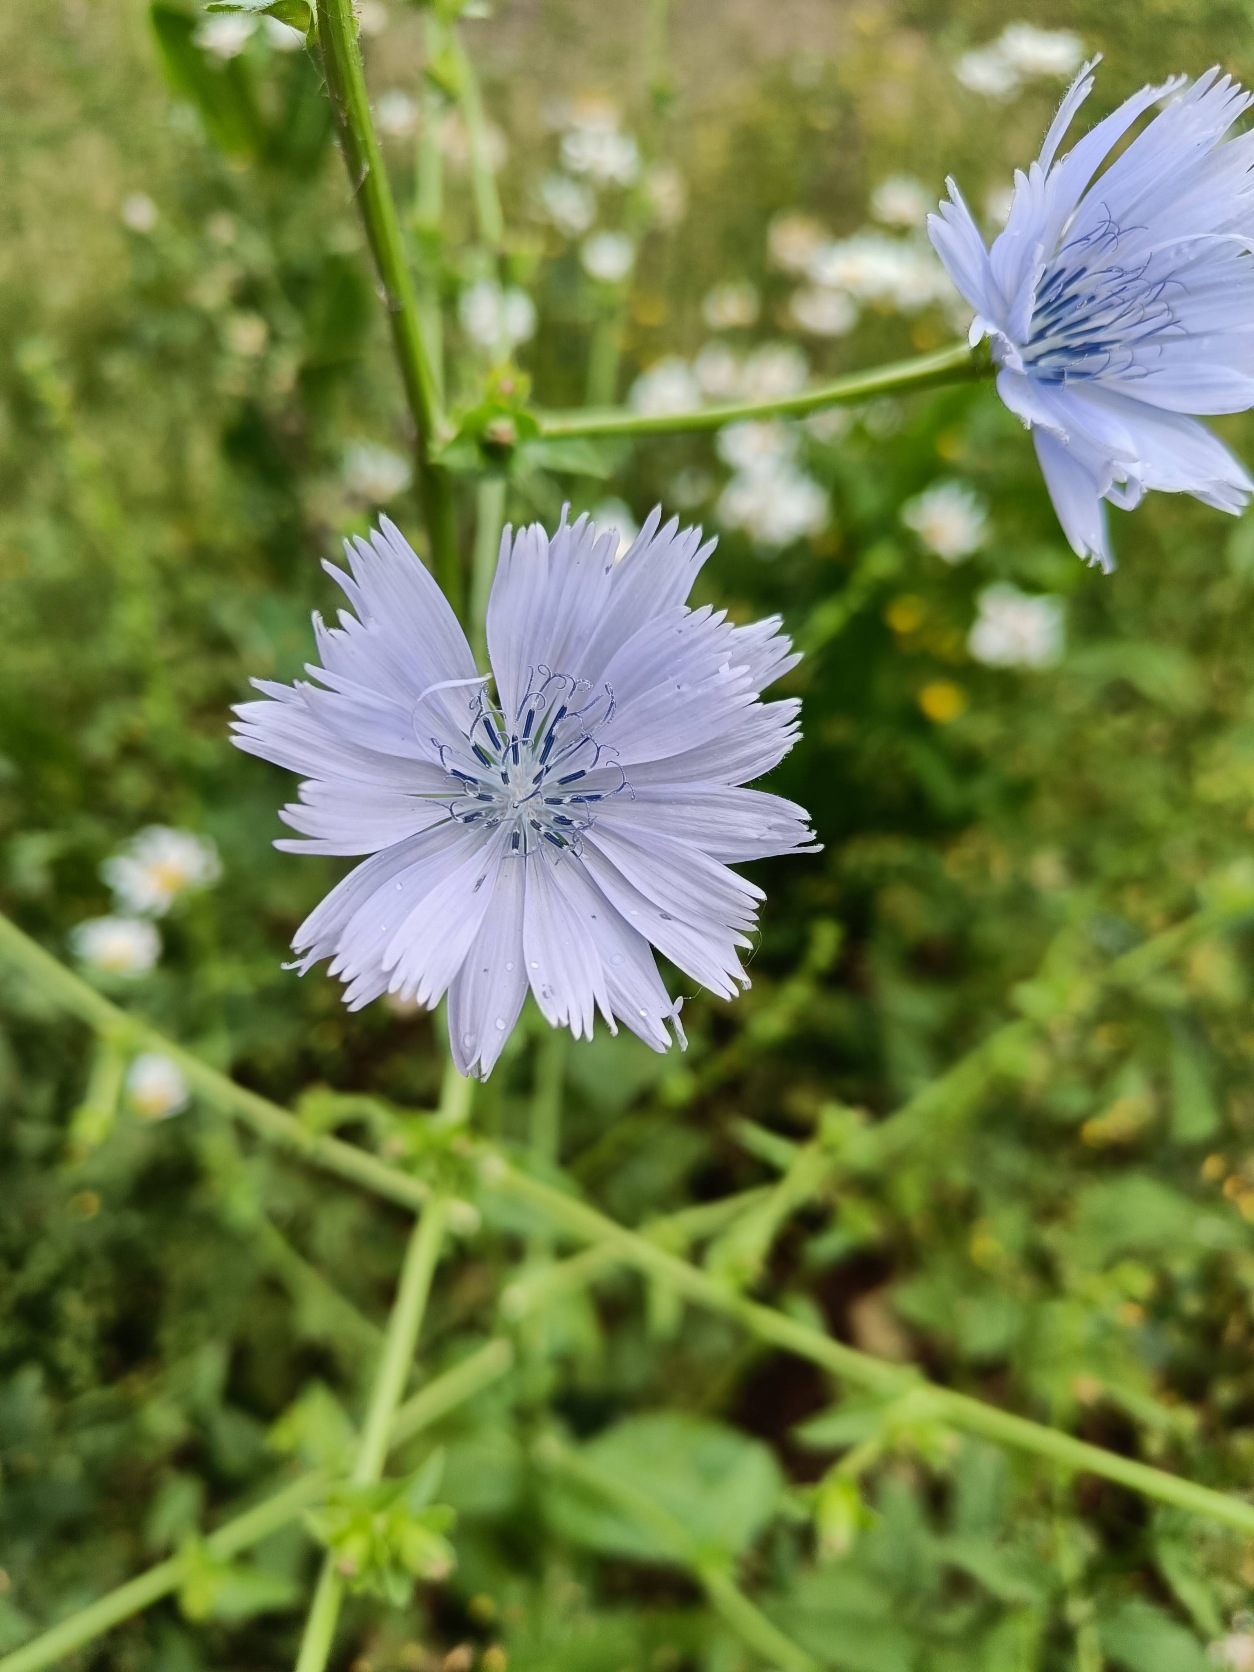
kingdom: Plantae
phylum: Tracheophyta
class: Magnoliopsida
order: Asterales
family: Asteraceae
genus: Cichorium
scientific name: Cichorium intybus
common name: Cikorie
